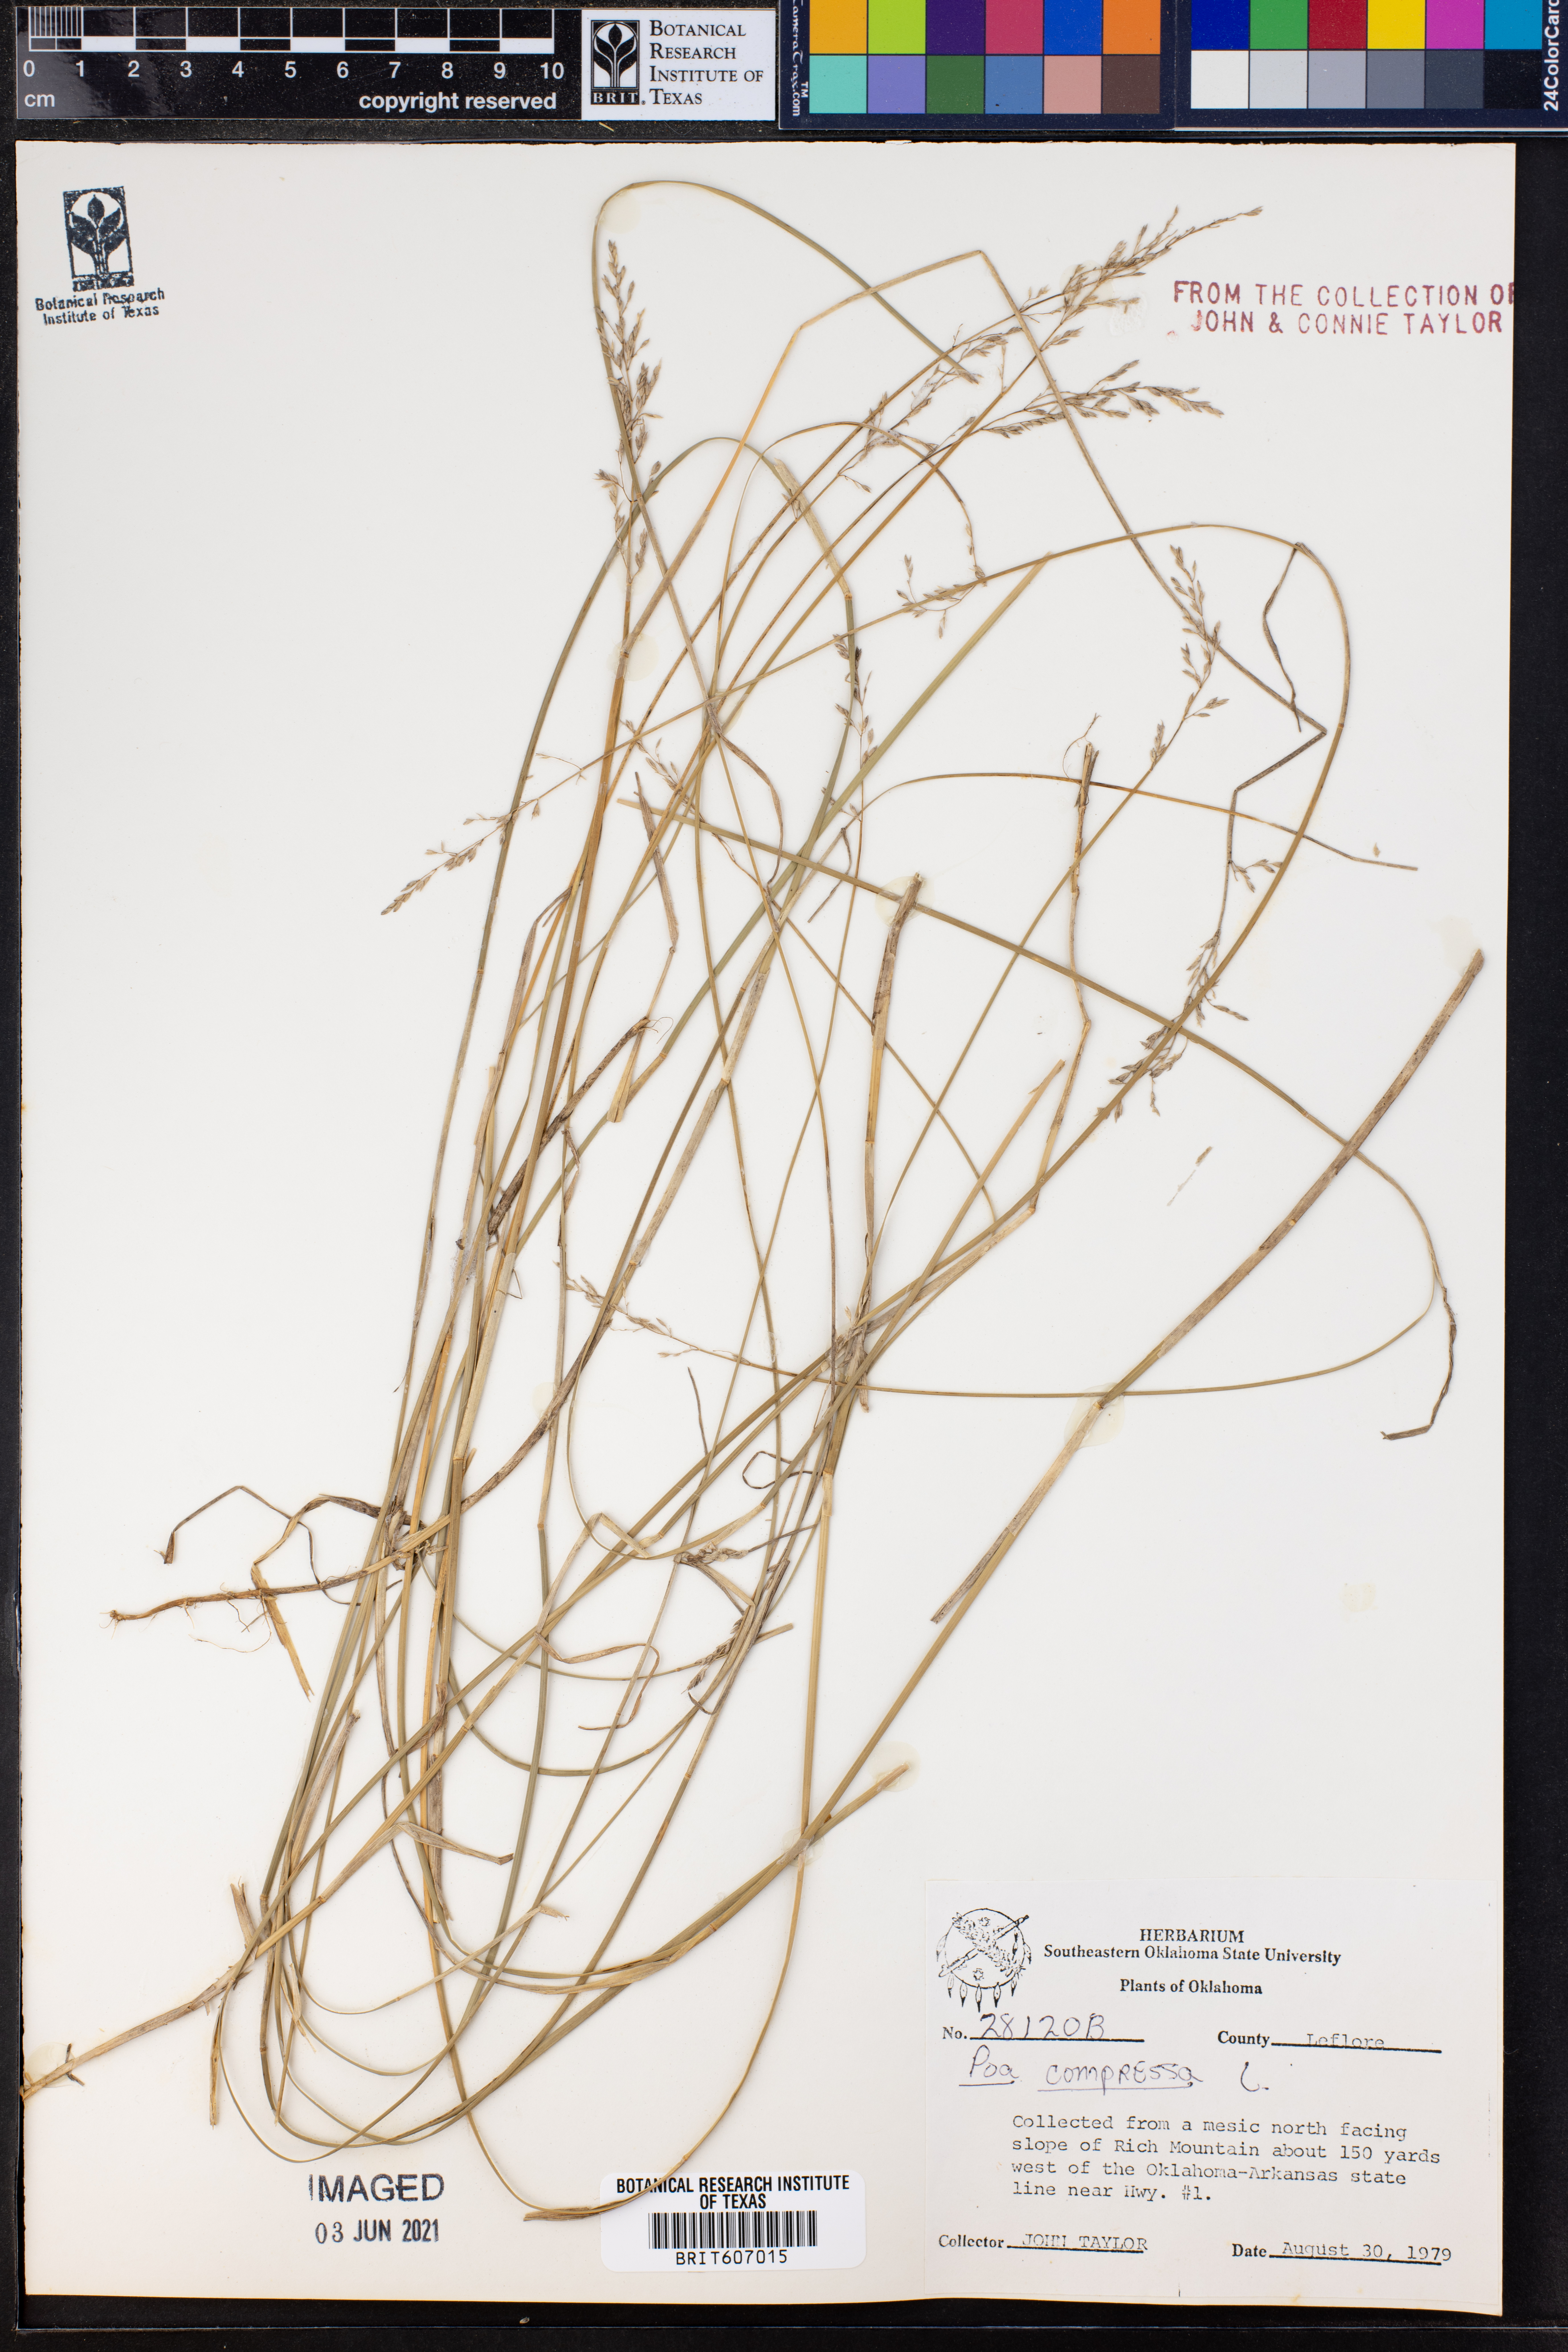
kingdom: Plantae
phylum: Tracheophyta
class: Liliopsida
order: Poales
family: Poaceae
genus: Poa
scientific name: Poa compressa
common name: Canada bluegrass
